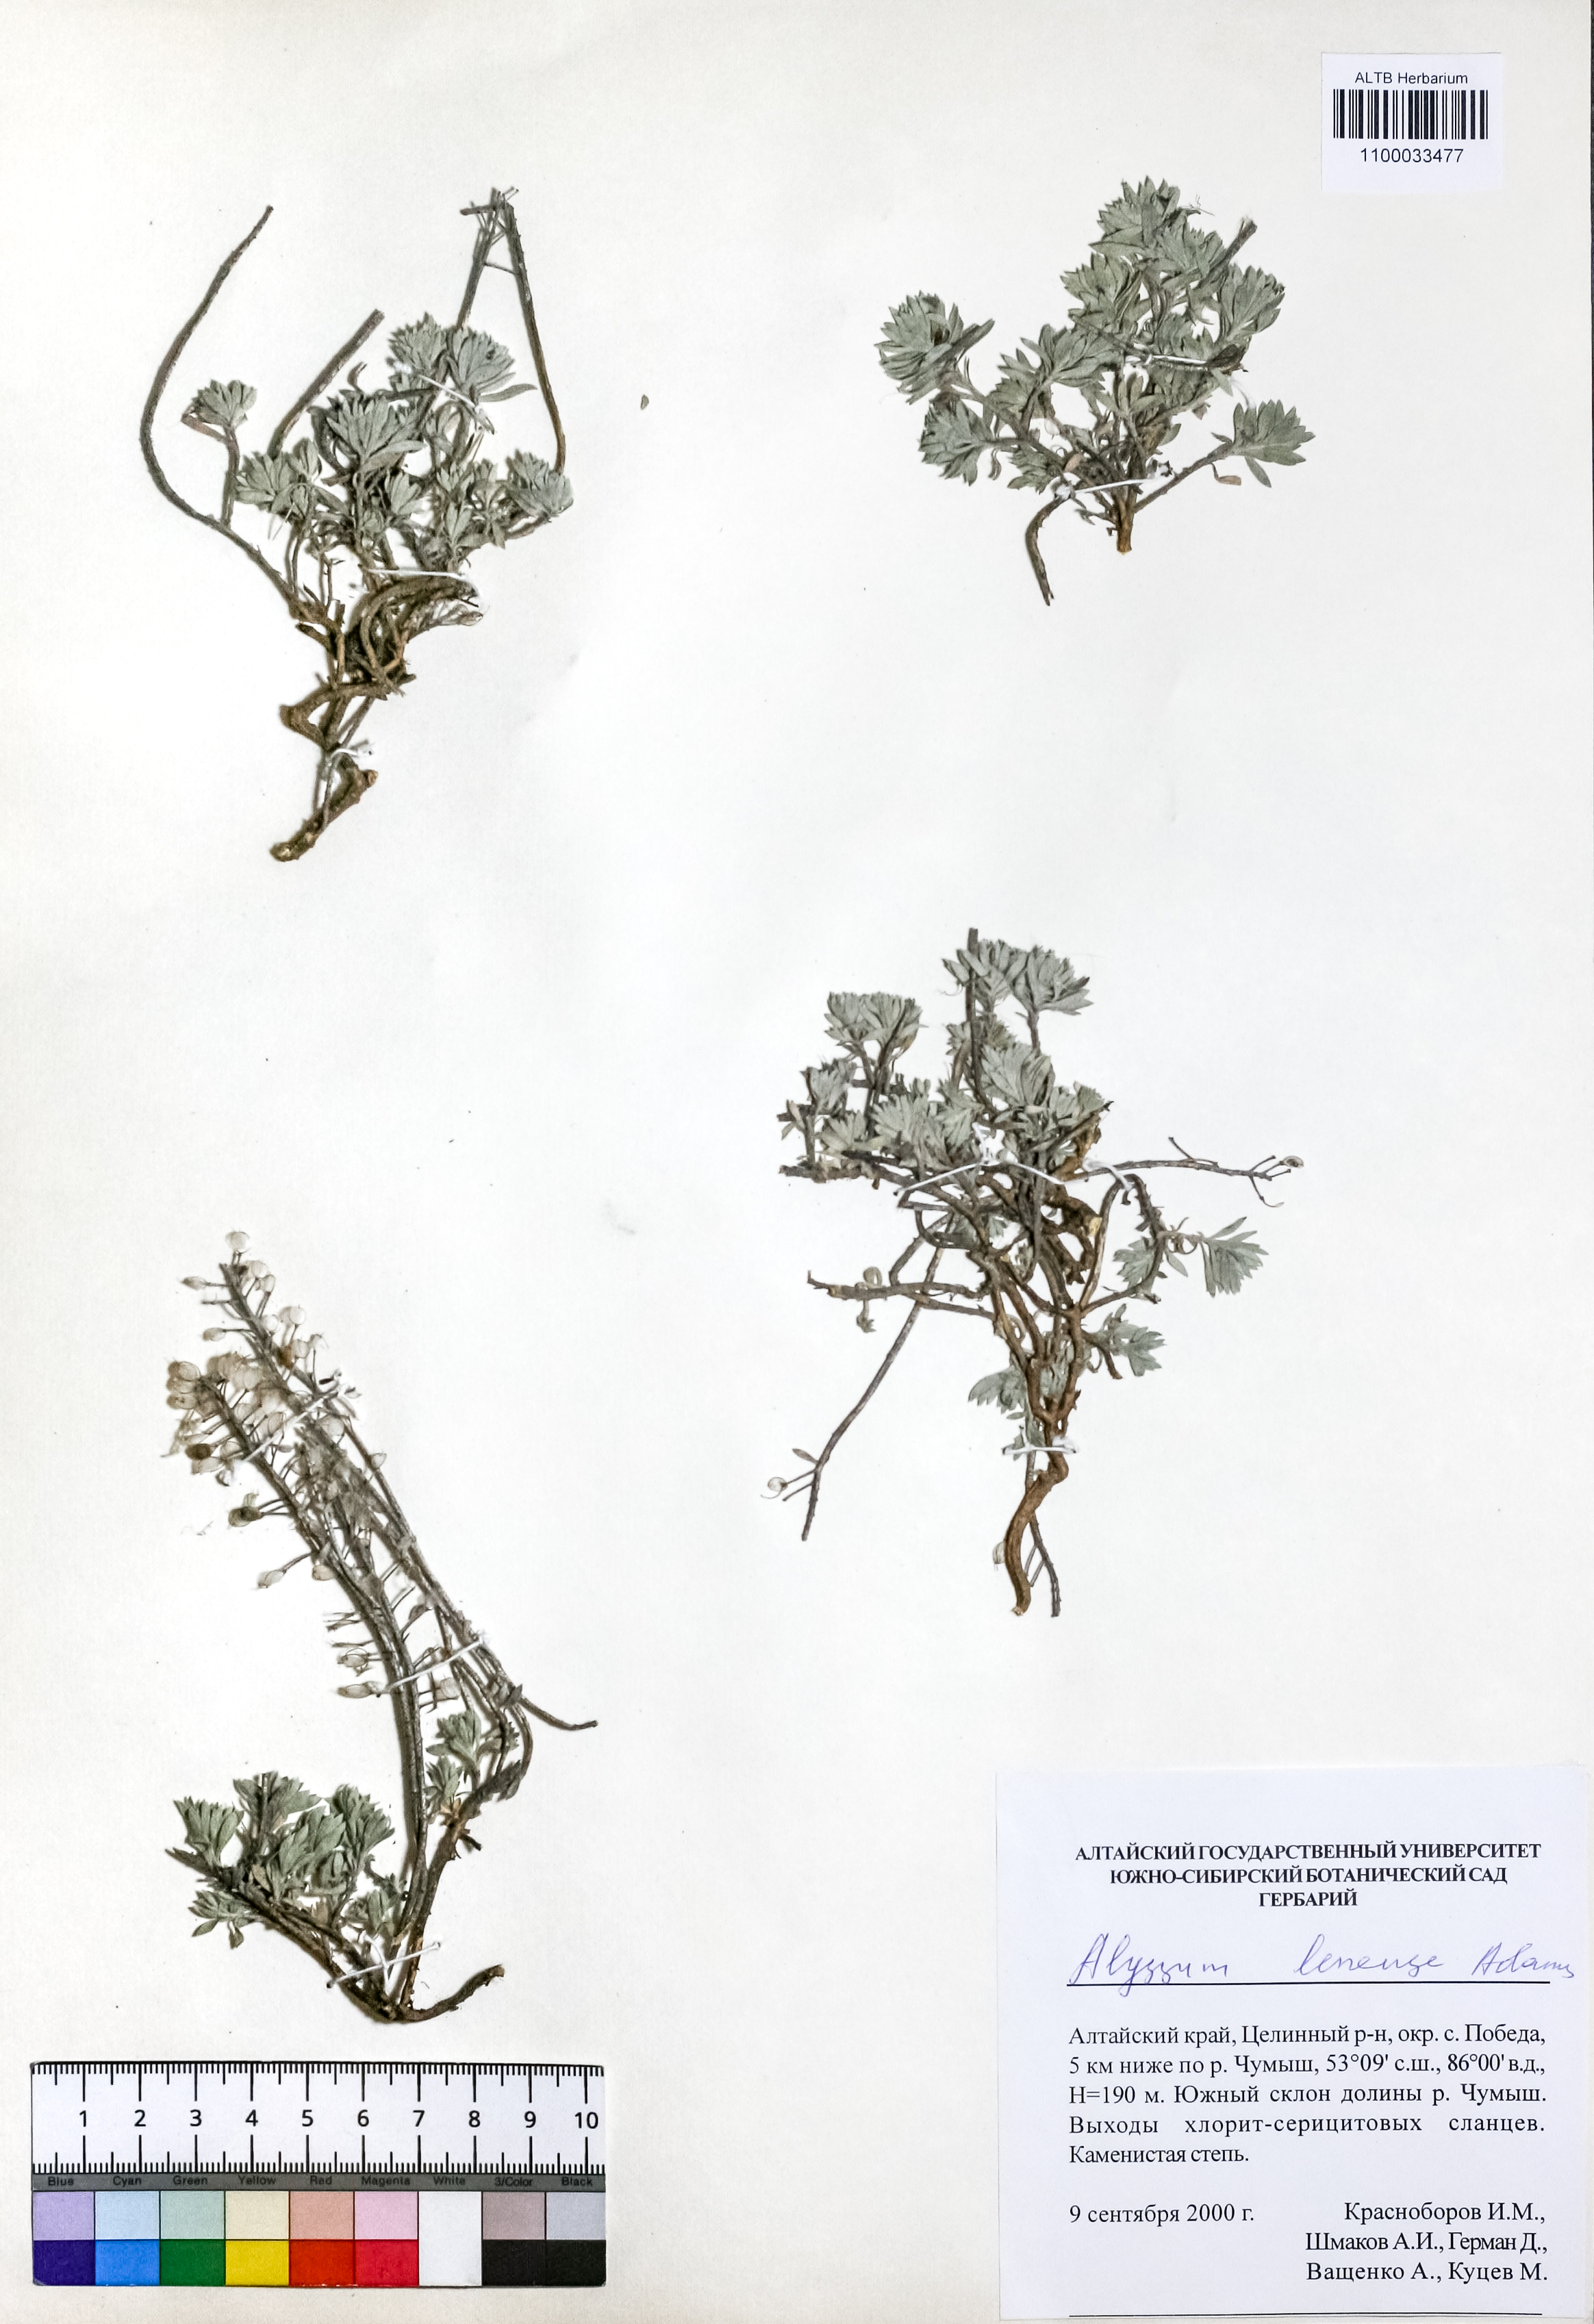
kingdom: Plantae
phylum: Tracheophyta
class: Magnoliopsida
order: Brassicales
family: Brassicaceae
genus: Alyssum
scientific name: Alyssum lenense
